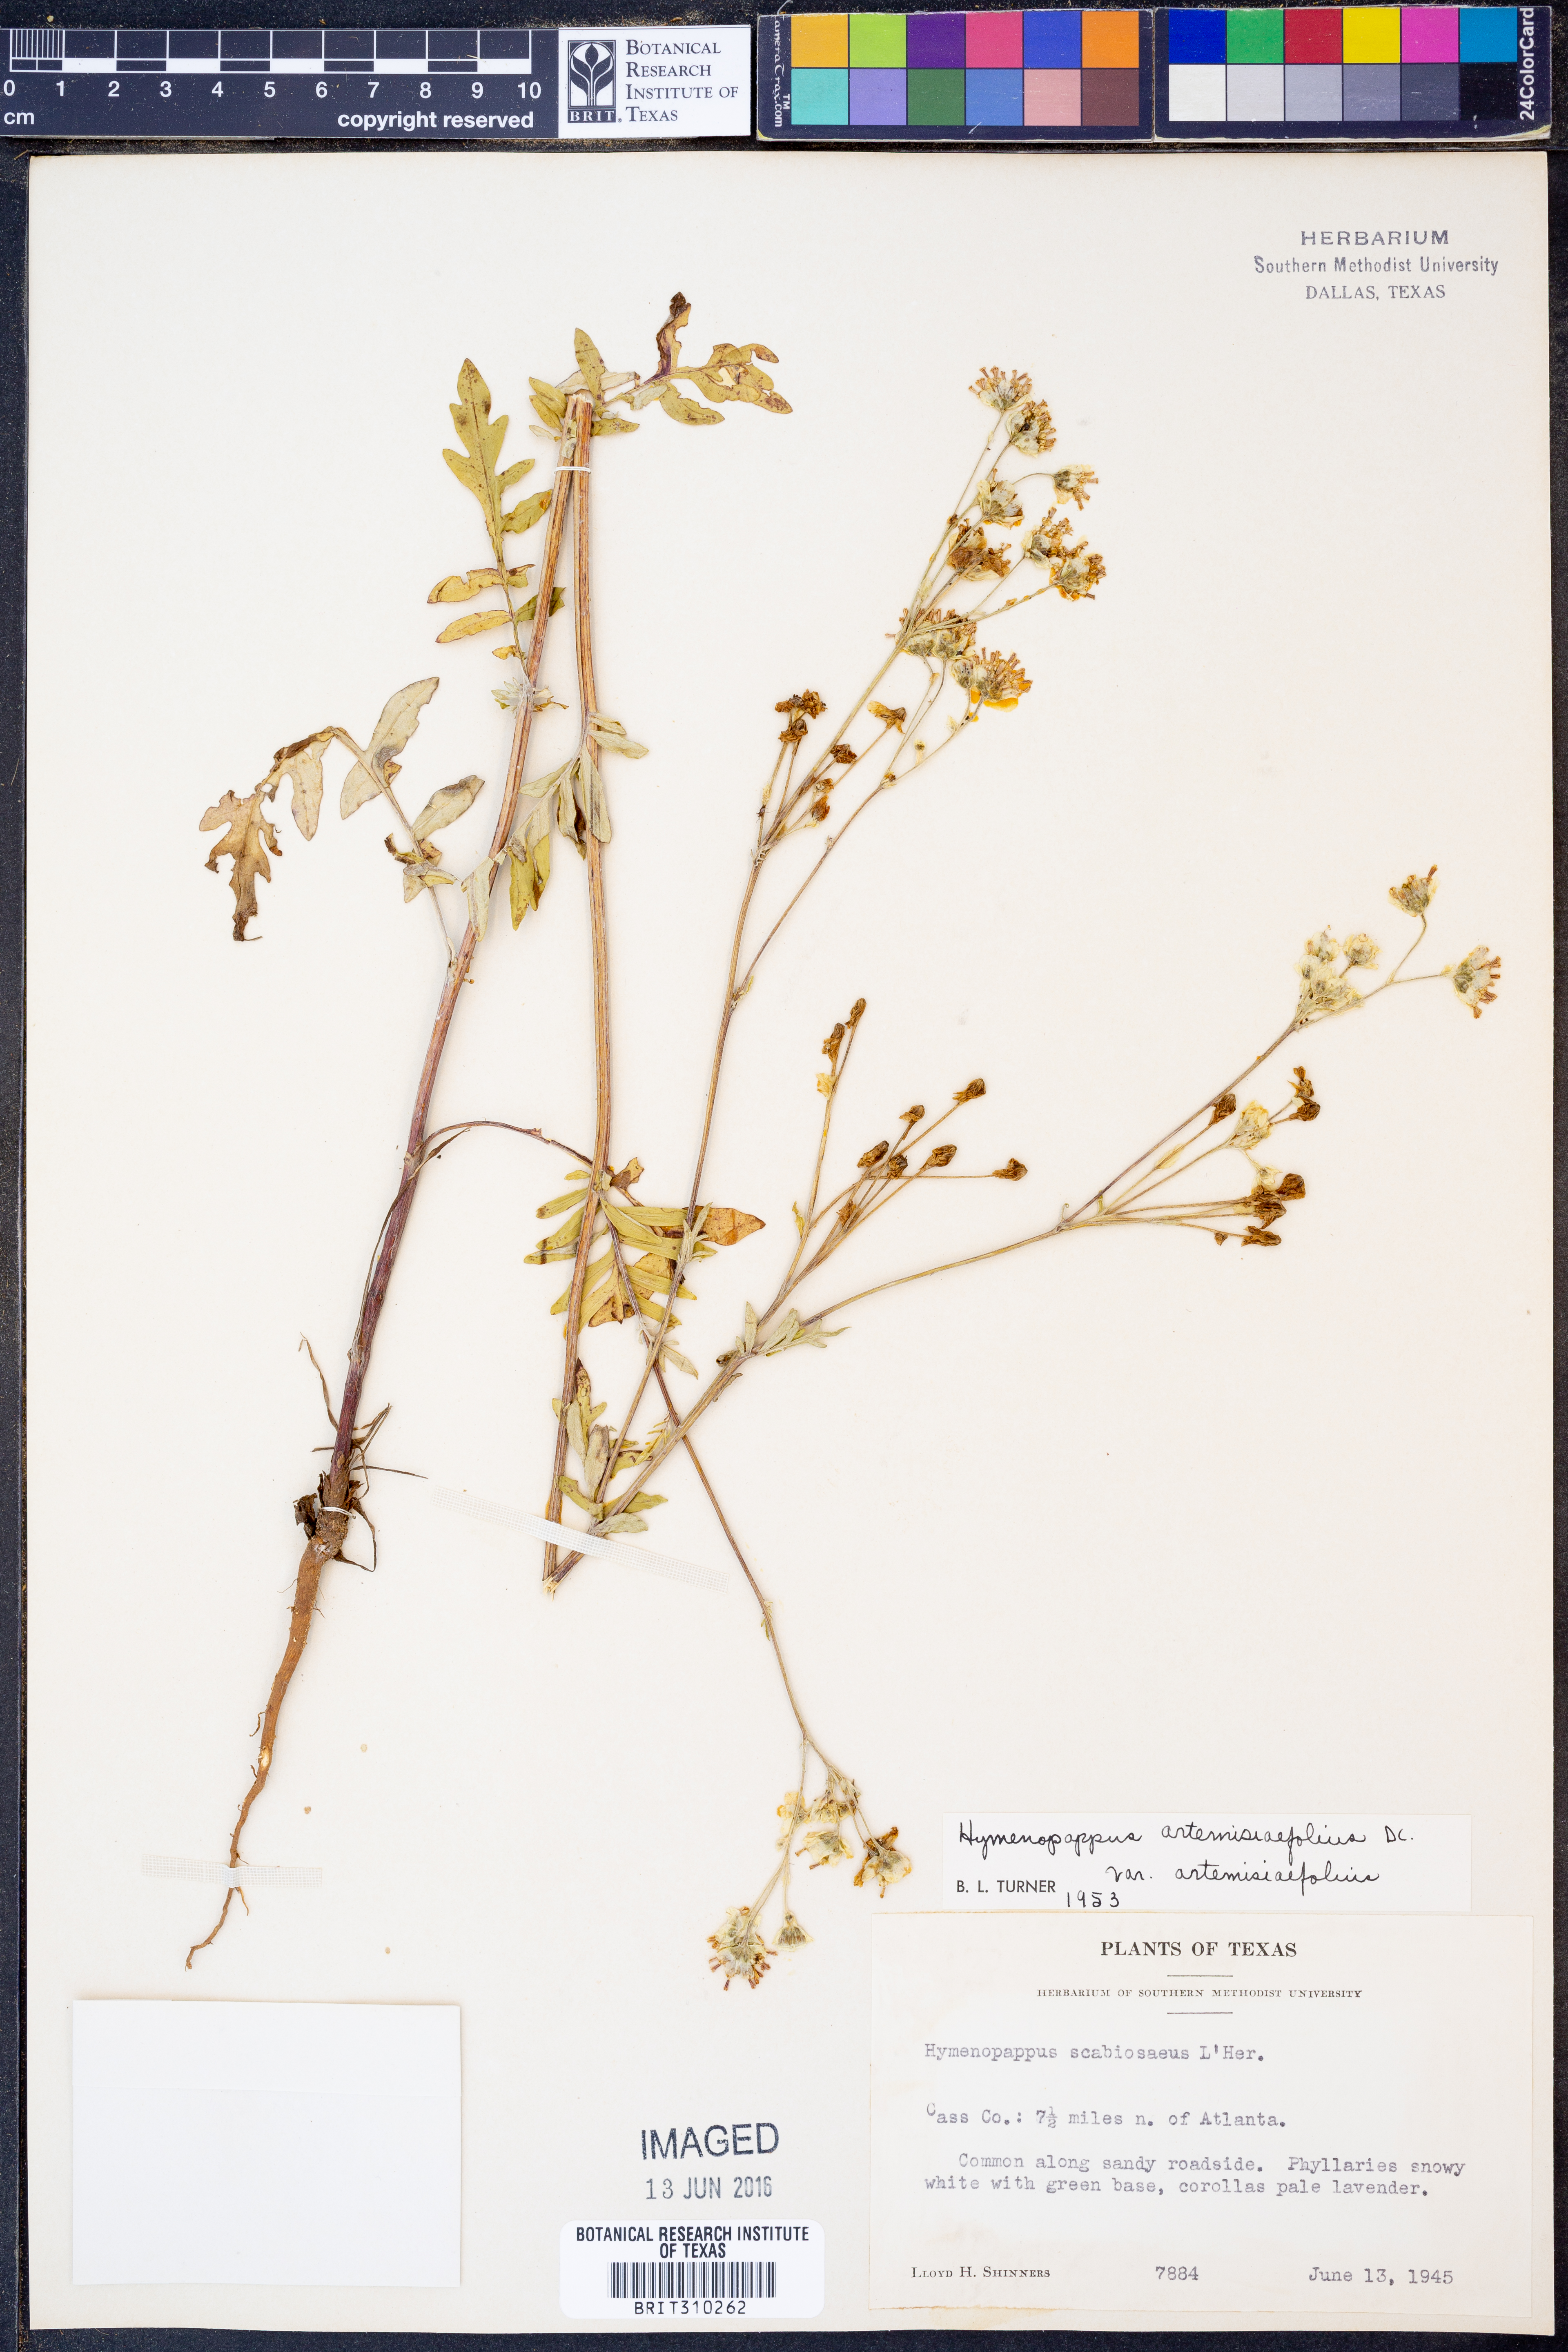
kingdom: Plantae
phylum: Tracheophyta
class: Magnoliopsida
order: Asterales
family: Asteraceae
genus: Hymenopappus
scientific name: Hymenopappus artemisiifolius
